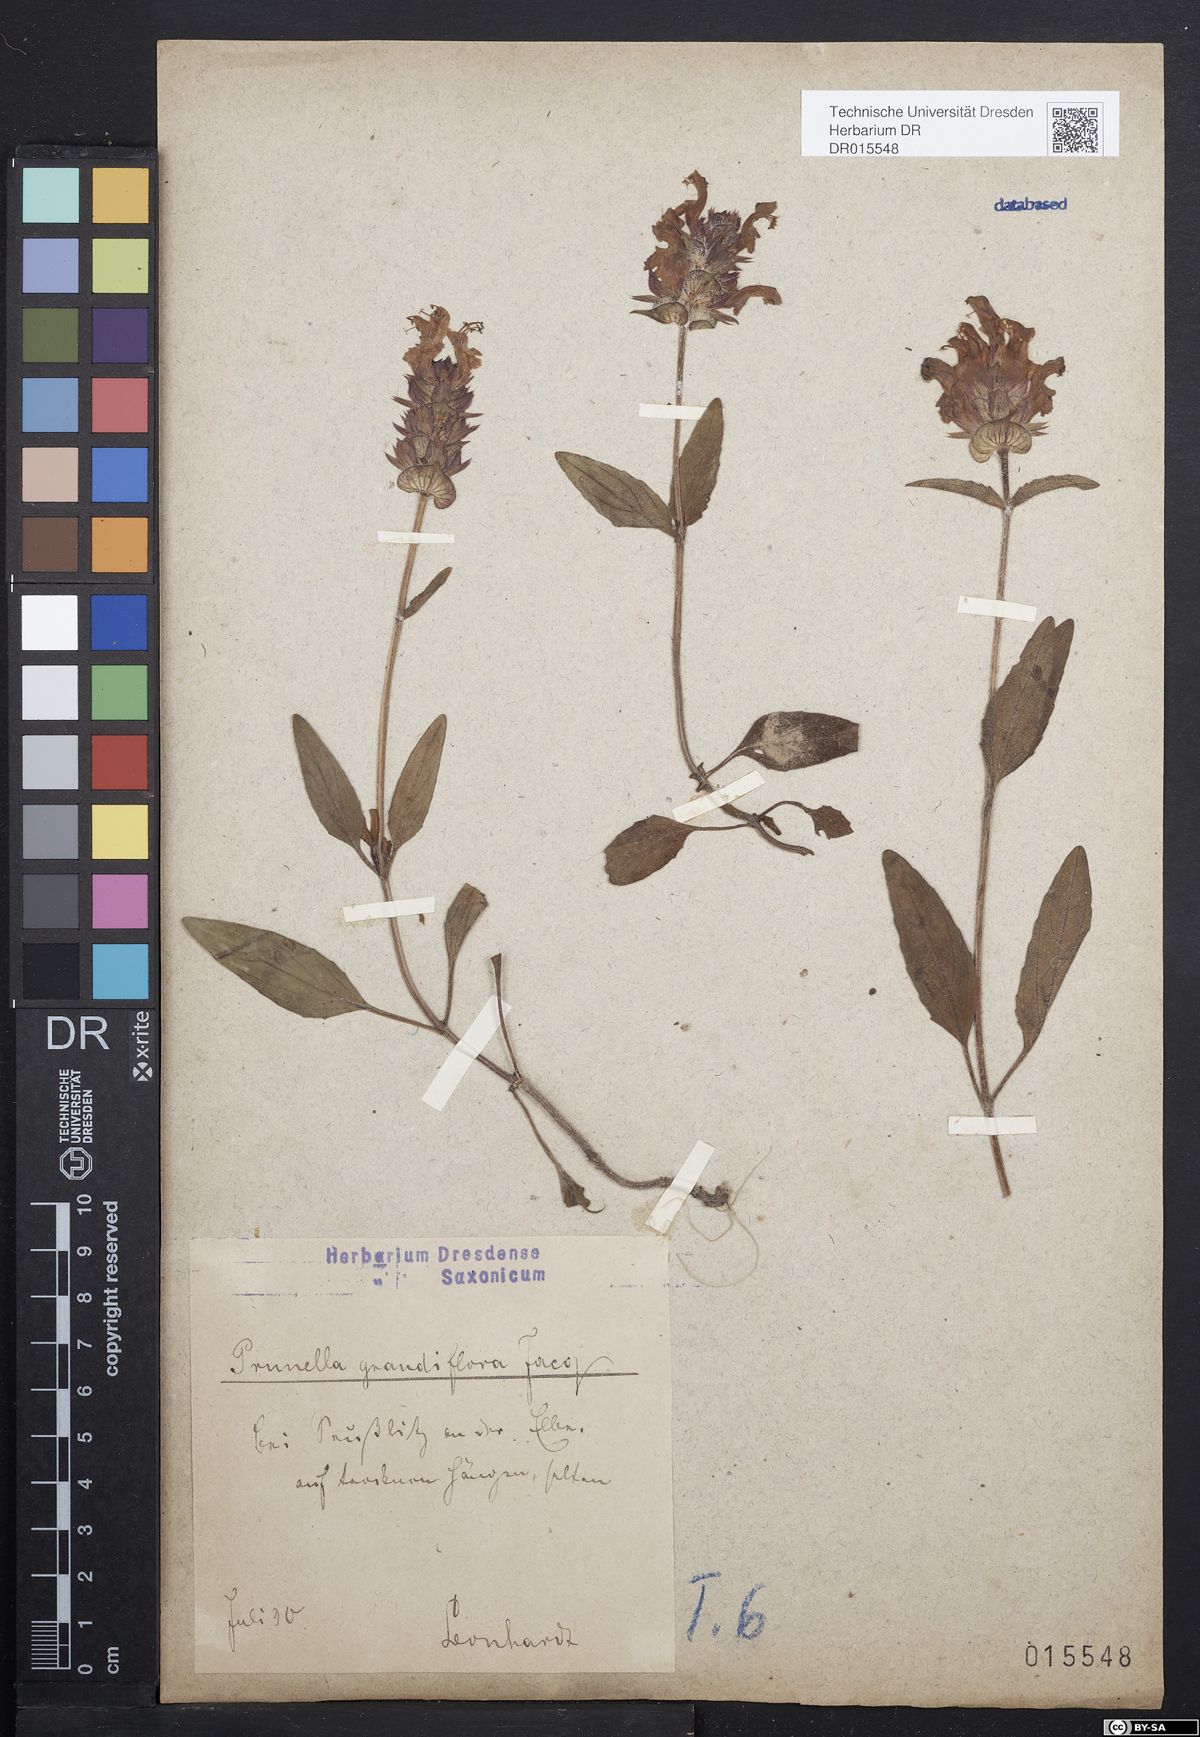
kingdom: Plantae
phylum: Tracheophyta
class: Magnoliopsida
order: Lamiales
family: Lamiaceae
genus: Prunella
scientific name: Prunella grandiflora
